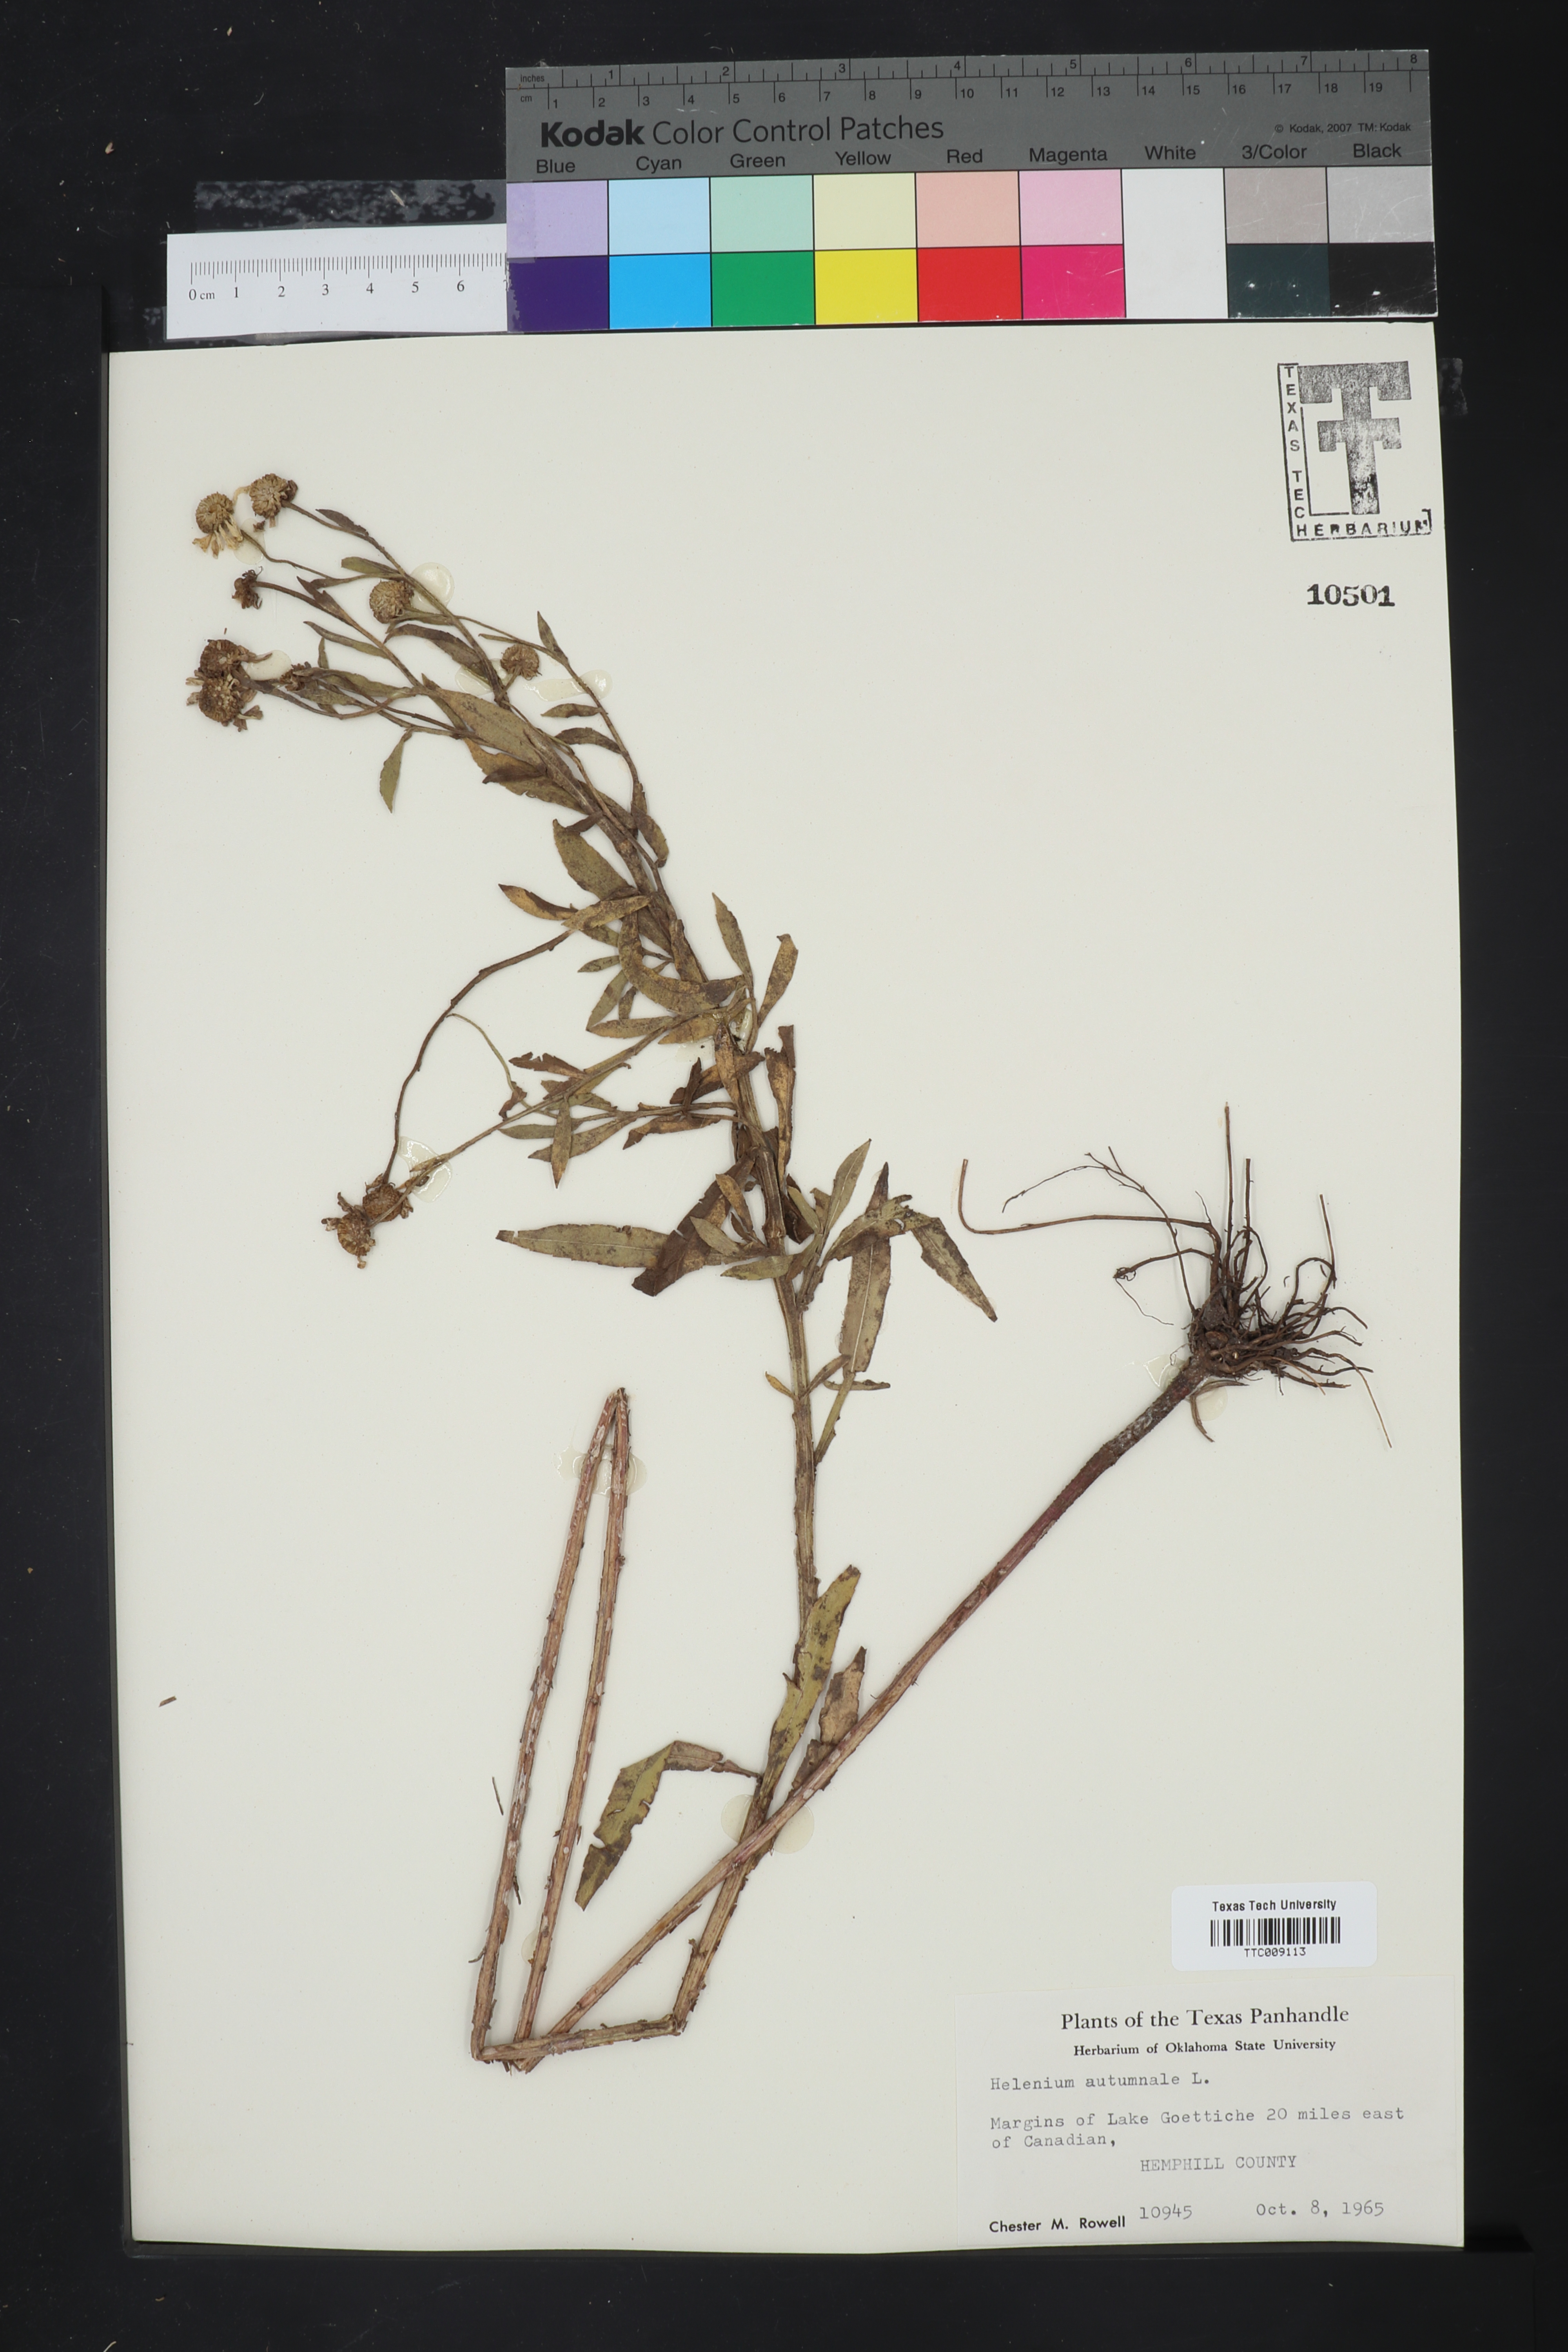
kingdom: Plantae
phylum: Tracheophyta
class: Magnoliopsida
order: Asterales
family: Asteraceae
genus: Helenium
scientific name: Helenium autumnale
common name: Sneezeweed
